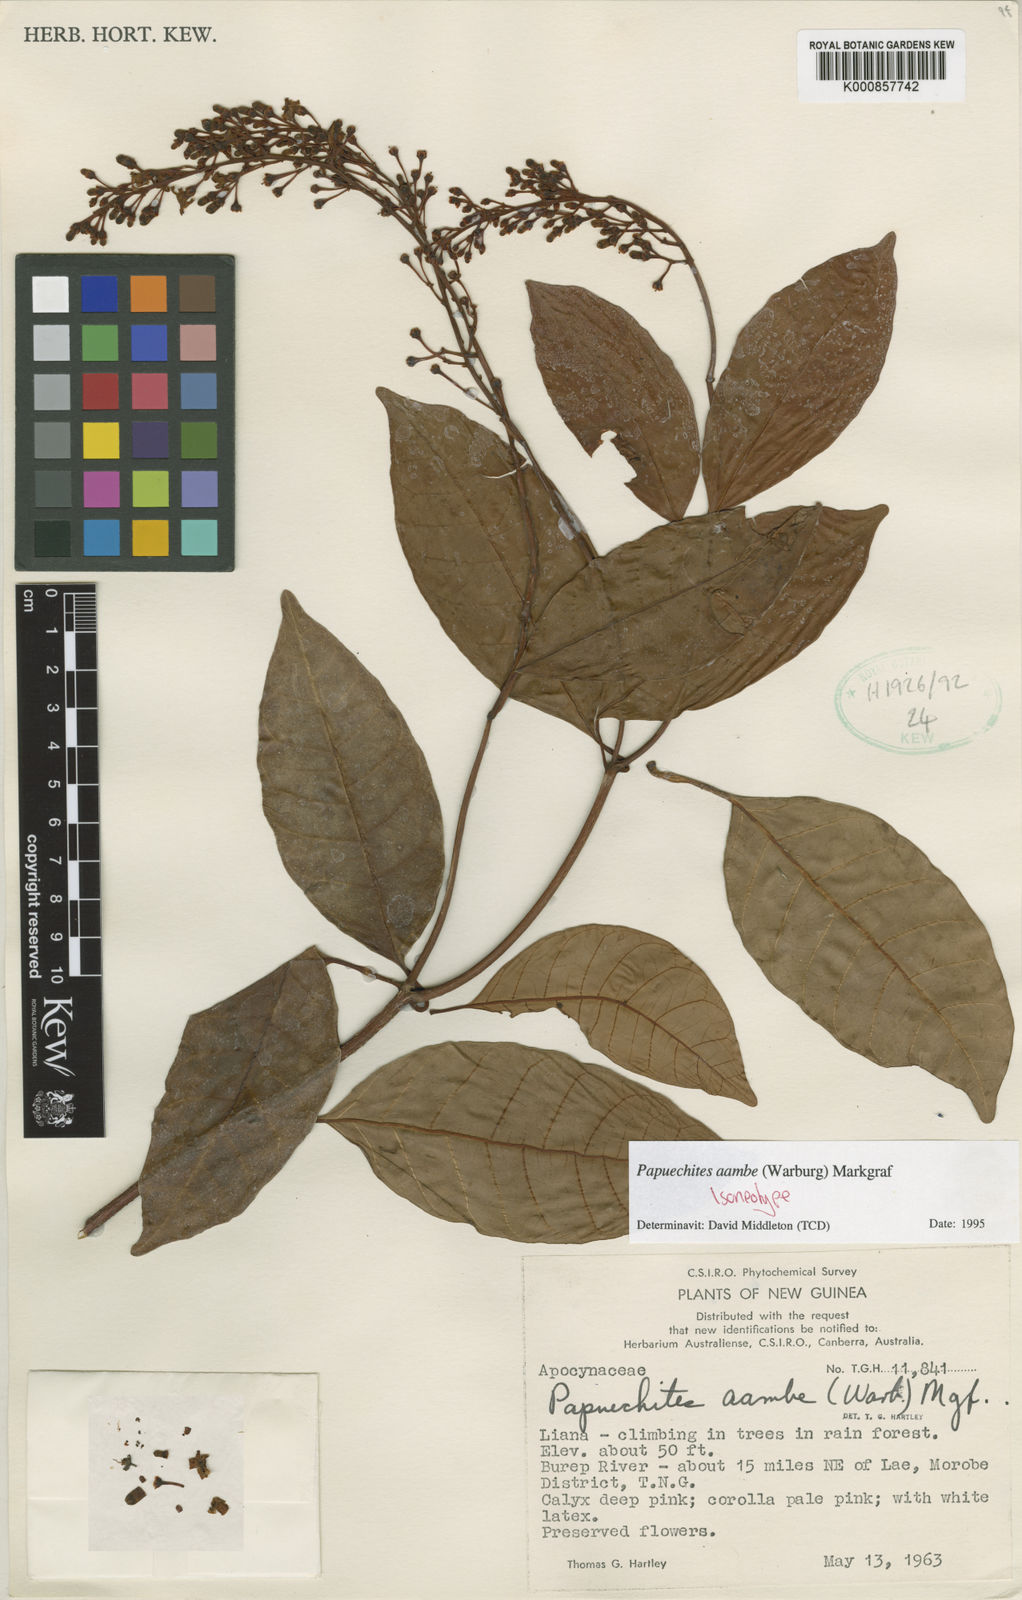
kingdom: Plantae
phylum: Tracheophyta
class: Magnoliopsida
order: Gentianales
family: Apocynaceae
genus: Papuechites
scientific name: Papuechites aambe
